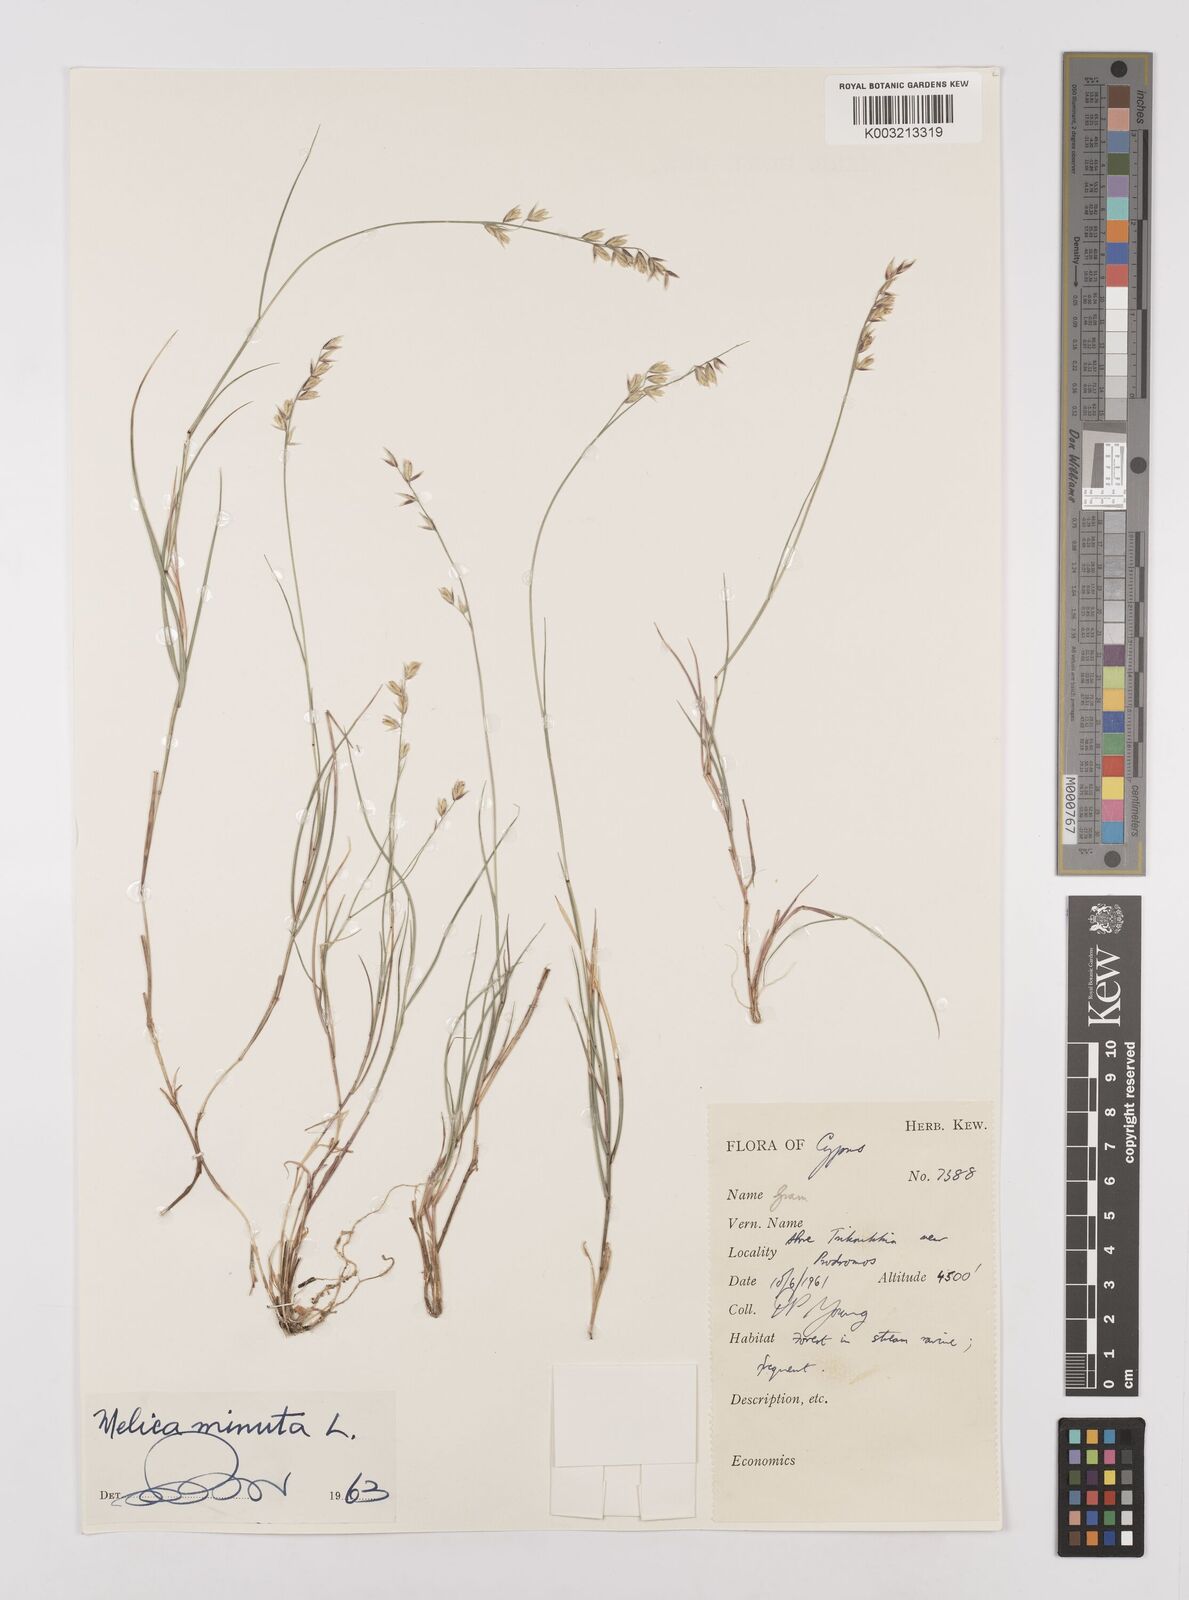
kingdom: Plantae
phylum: Tracheophyta
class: Liliopsida
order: Poales
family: Poaceae
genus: Melica
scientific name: Melica minuta
